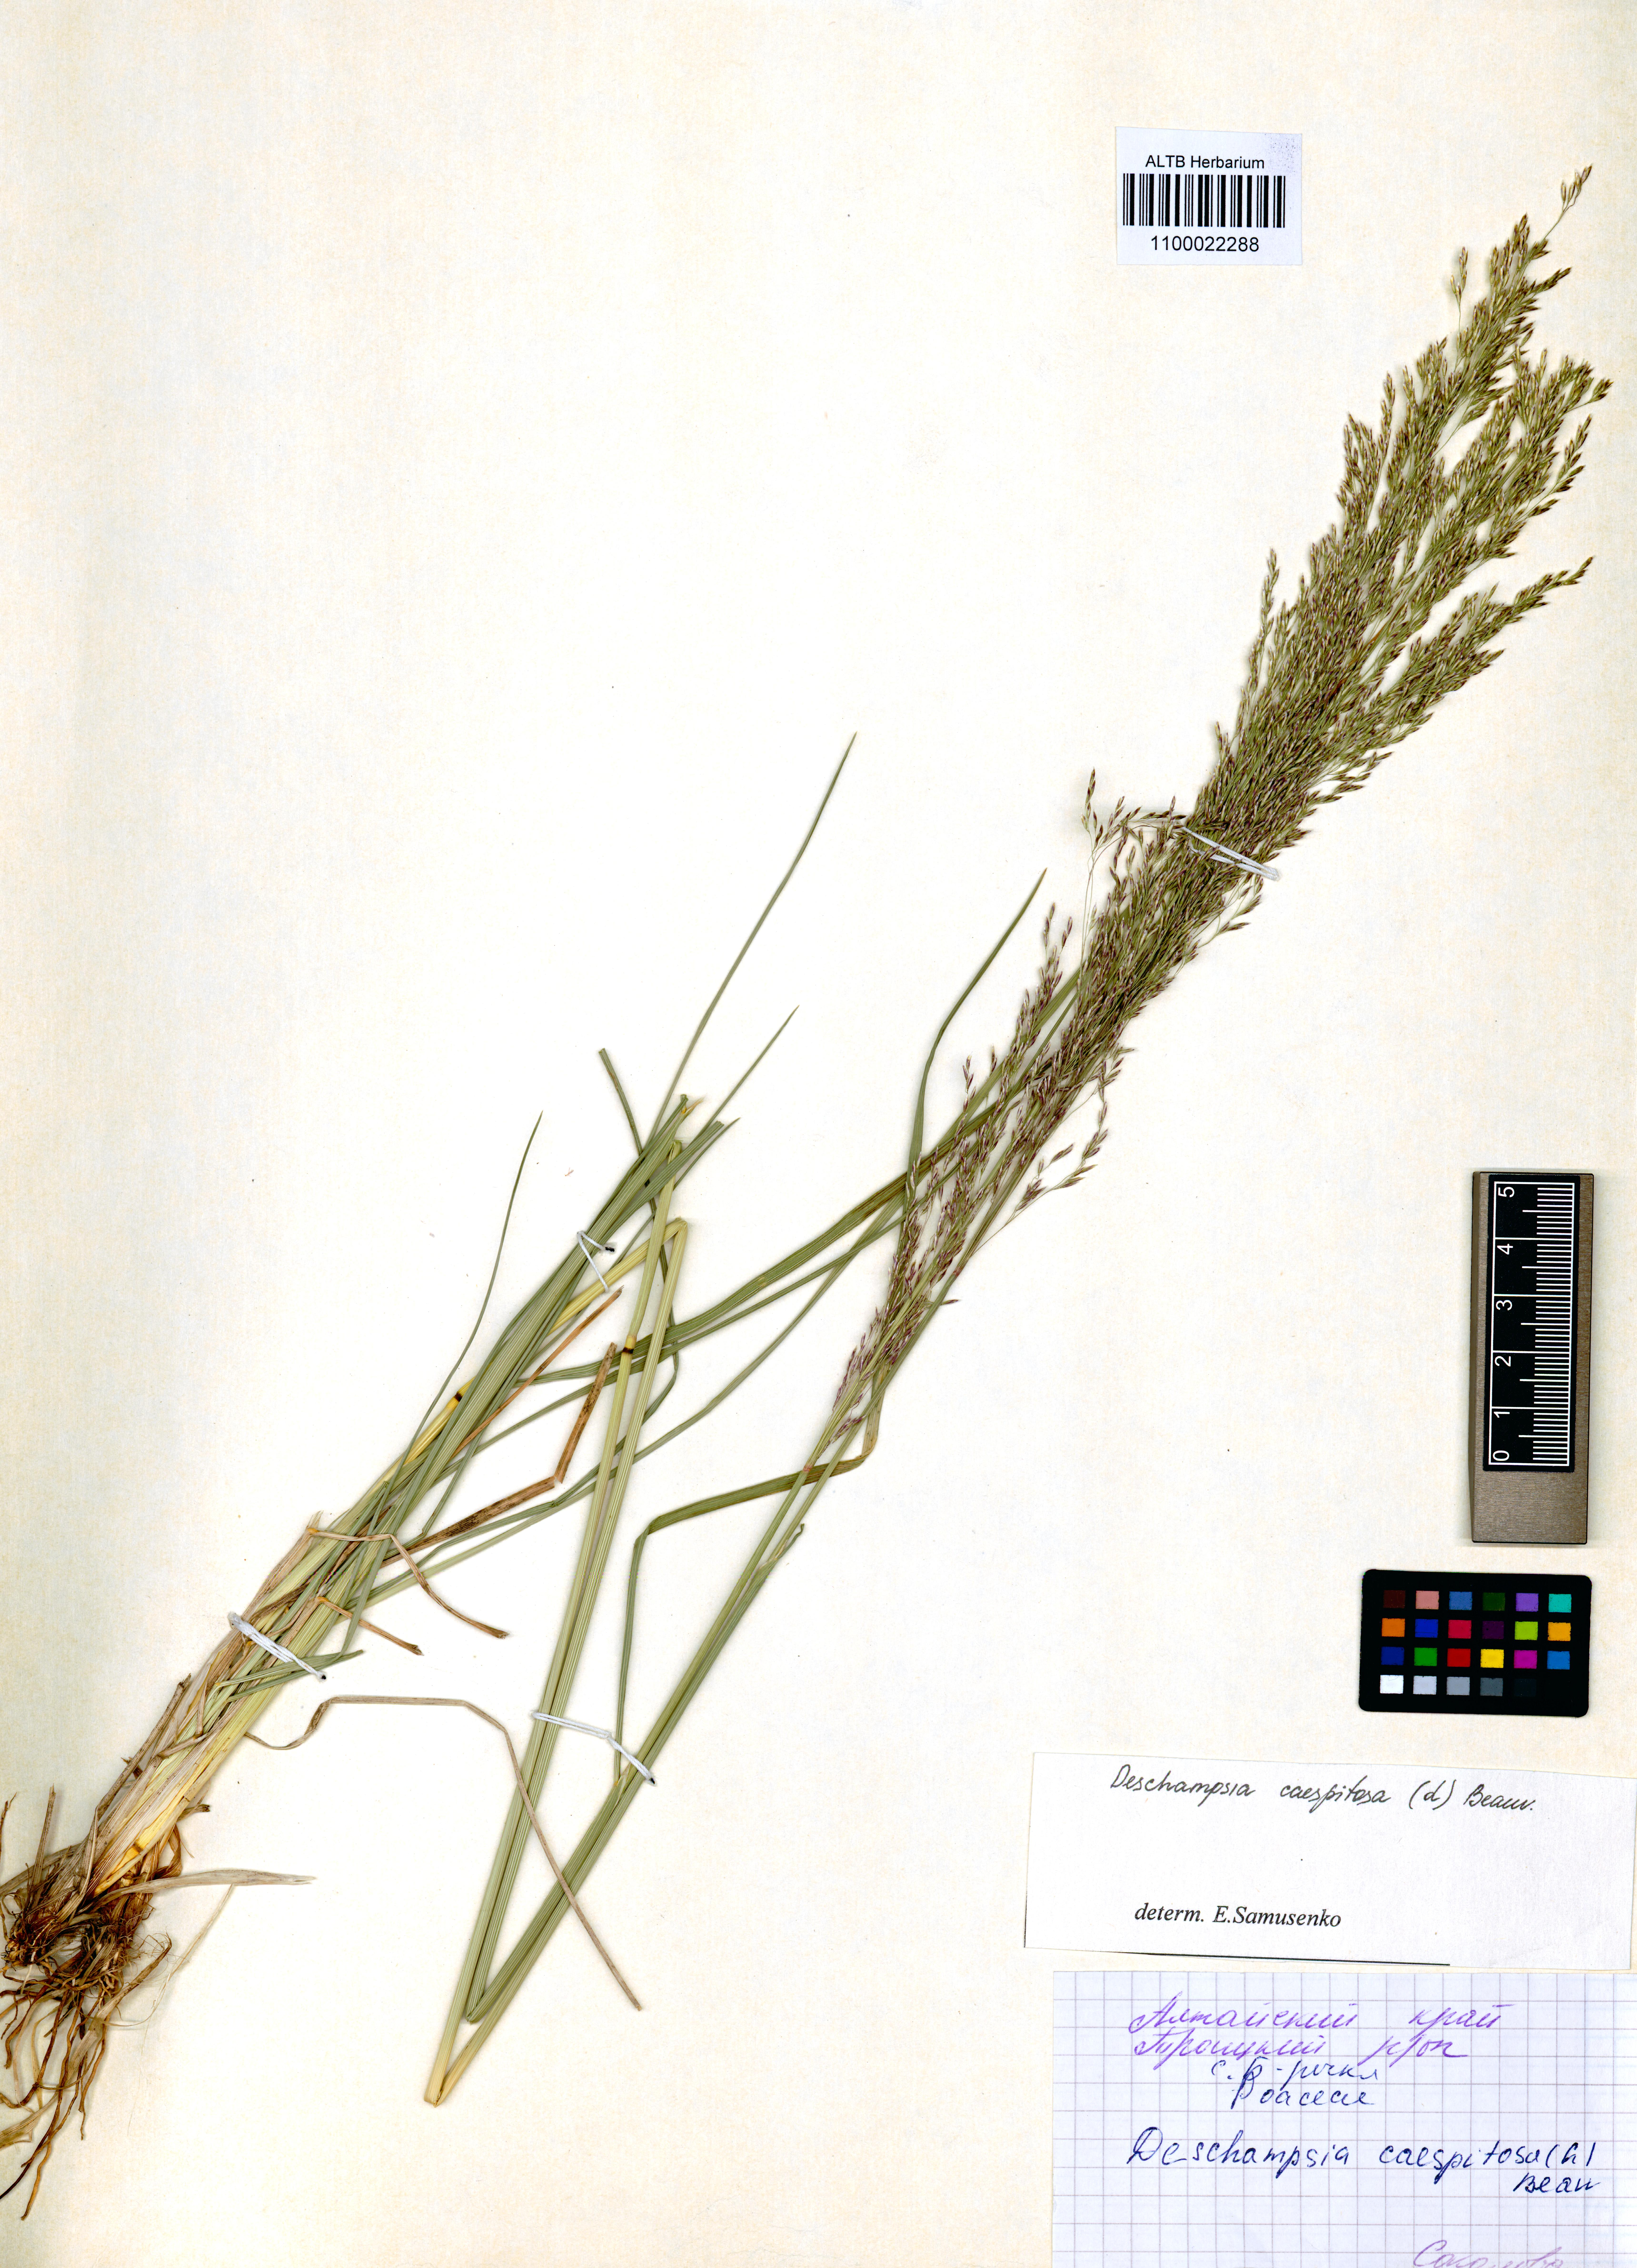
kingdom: Plantae
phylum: Tracheophyta
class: Liliopsida
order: Poales
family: Poaceae
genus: Deschampsia
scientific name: Deschampsia cespitosa
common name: Tufted hair-grass
